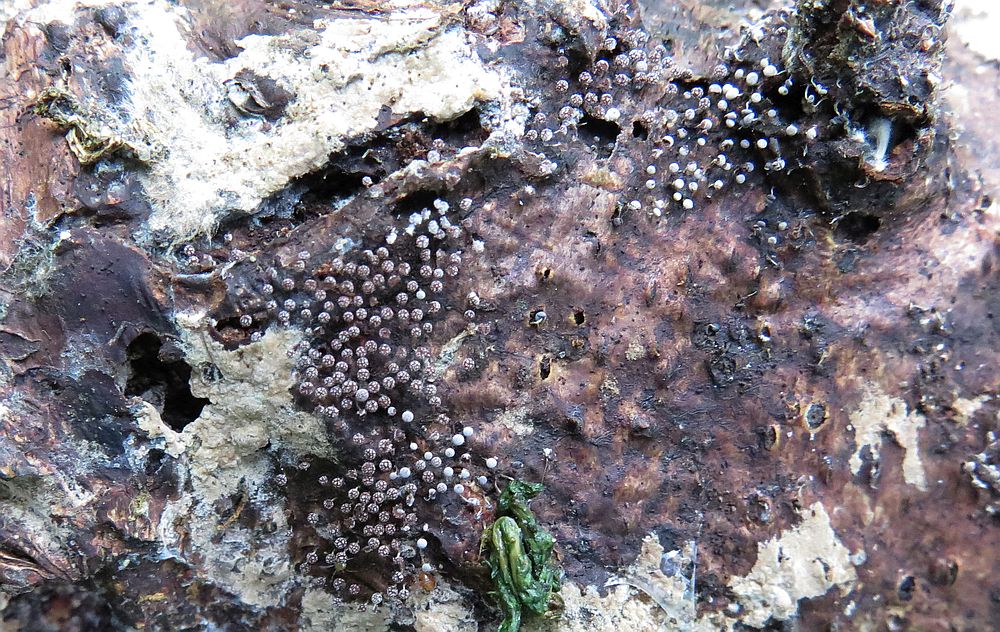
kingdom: Protozoa
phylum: Mycetozoa
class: Myxomycetes
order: Physarales
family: Physaraceae
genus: Physarum
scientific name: Physarum album
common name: nikkende støvknop
